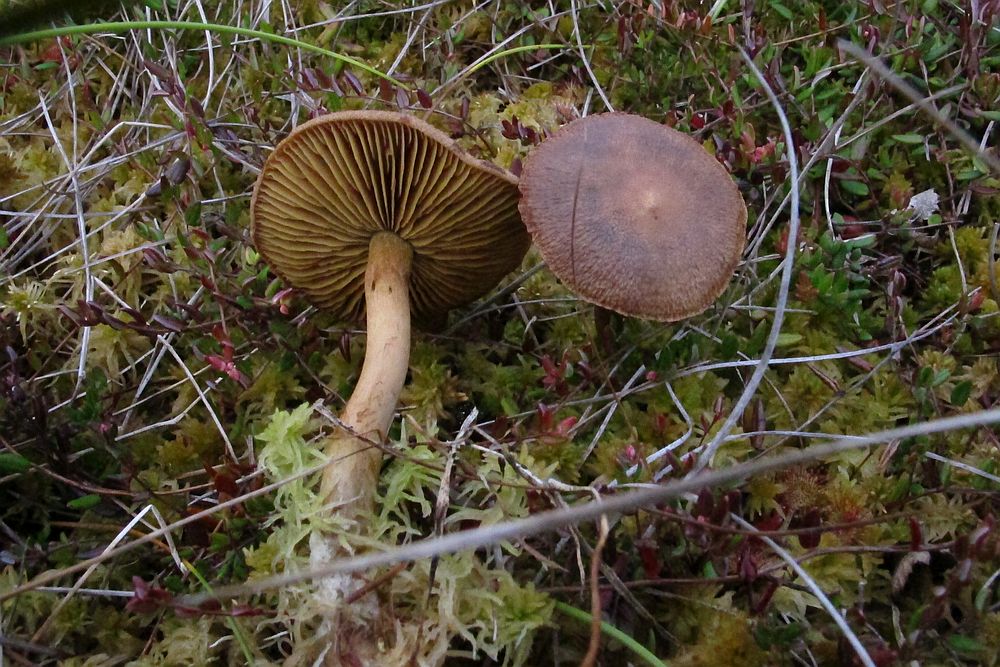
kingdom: Fungi
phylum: Basidiomycota
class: Agaricomycetes
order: Agaricales
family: Cortinariaceae
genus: Cortinarius
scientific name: Cortinarius davemallochii
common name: Mallochs slørhat
